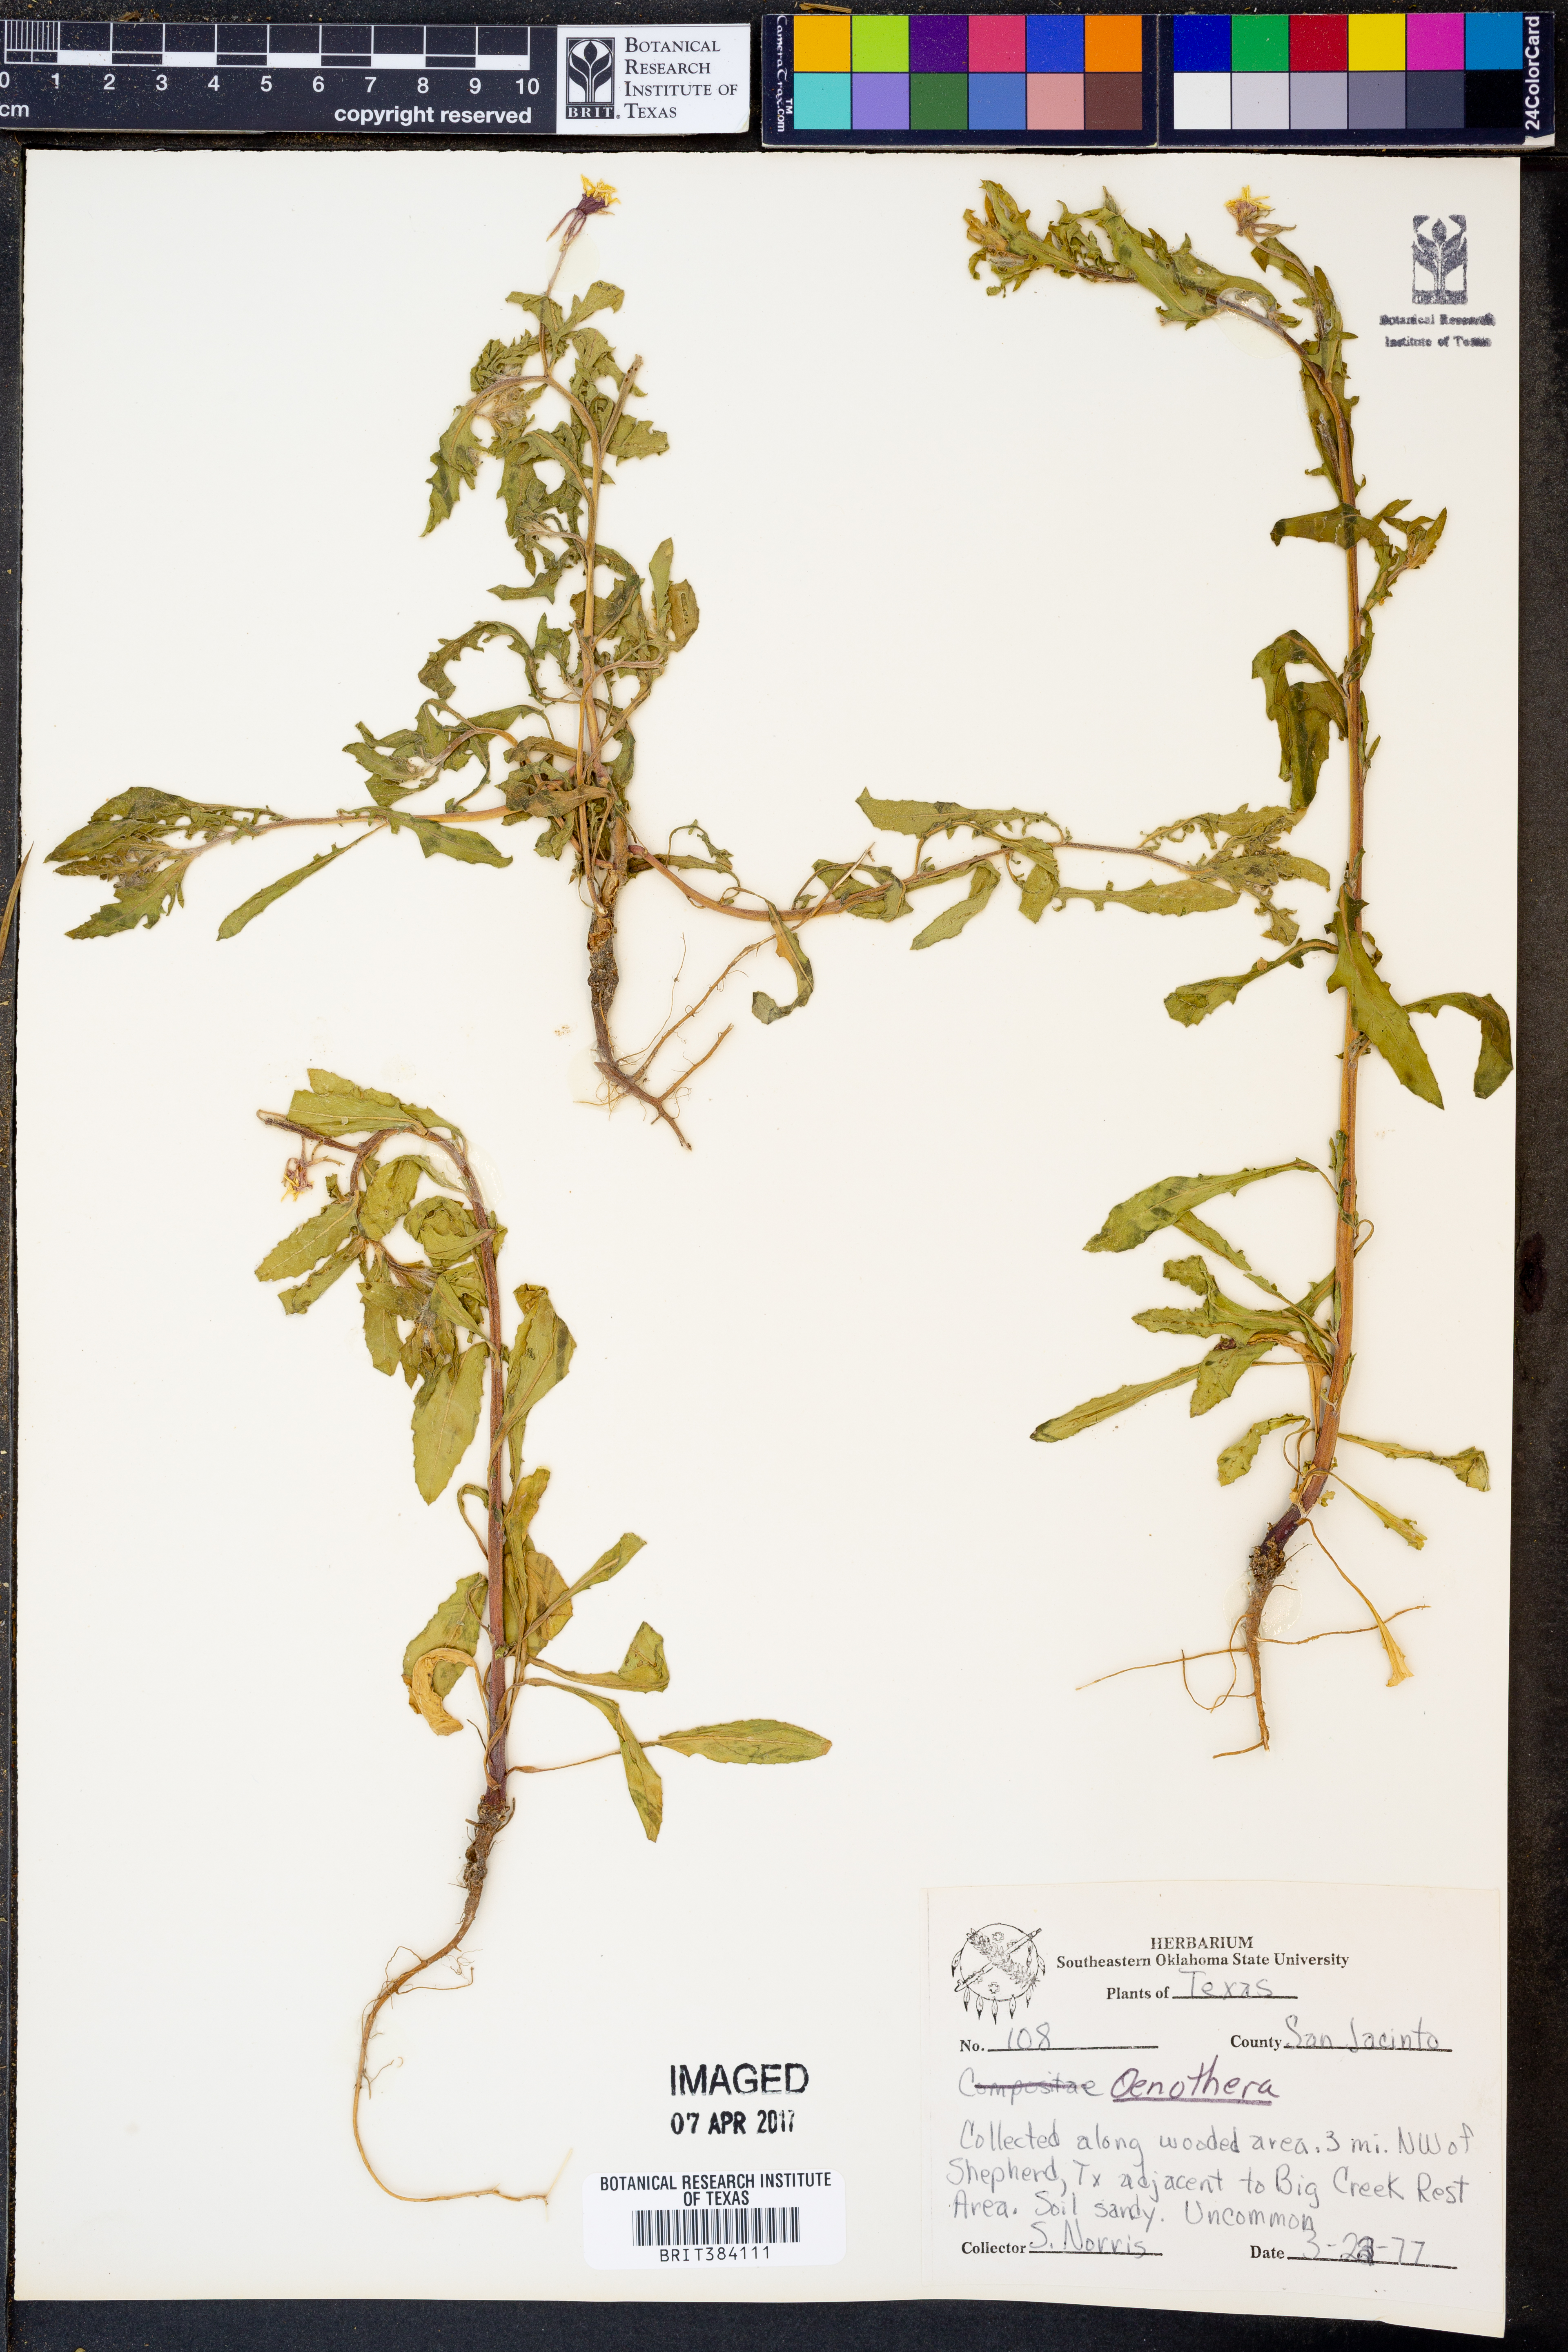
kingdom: Plantae
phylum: Tracheophyta
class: Magnoliopsida
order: Myrtales
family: Onagraceae
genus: Oenothera
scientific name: Oenothera
